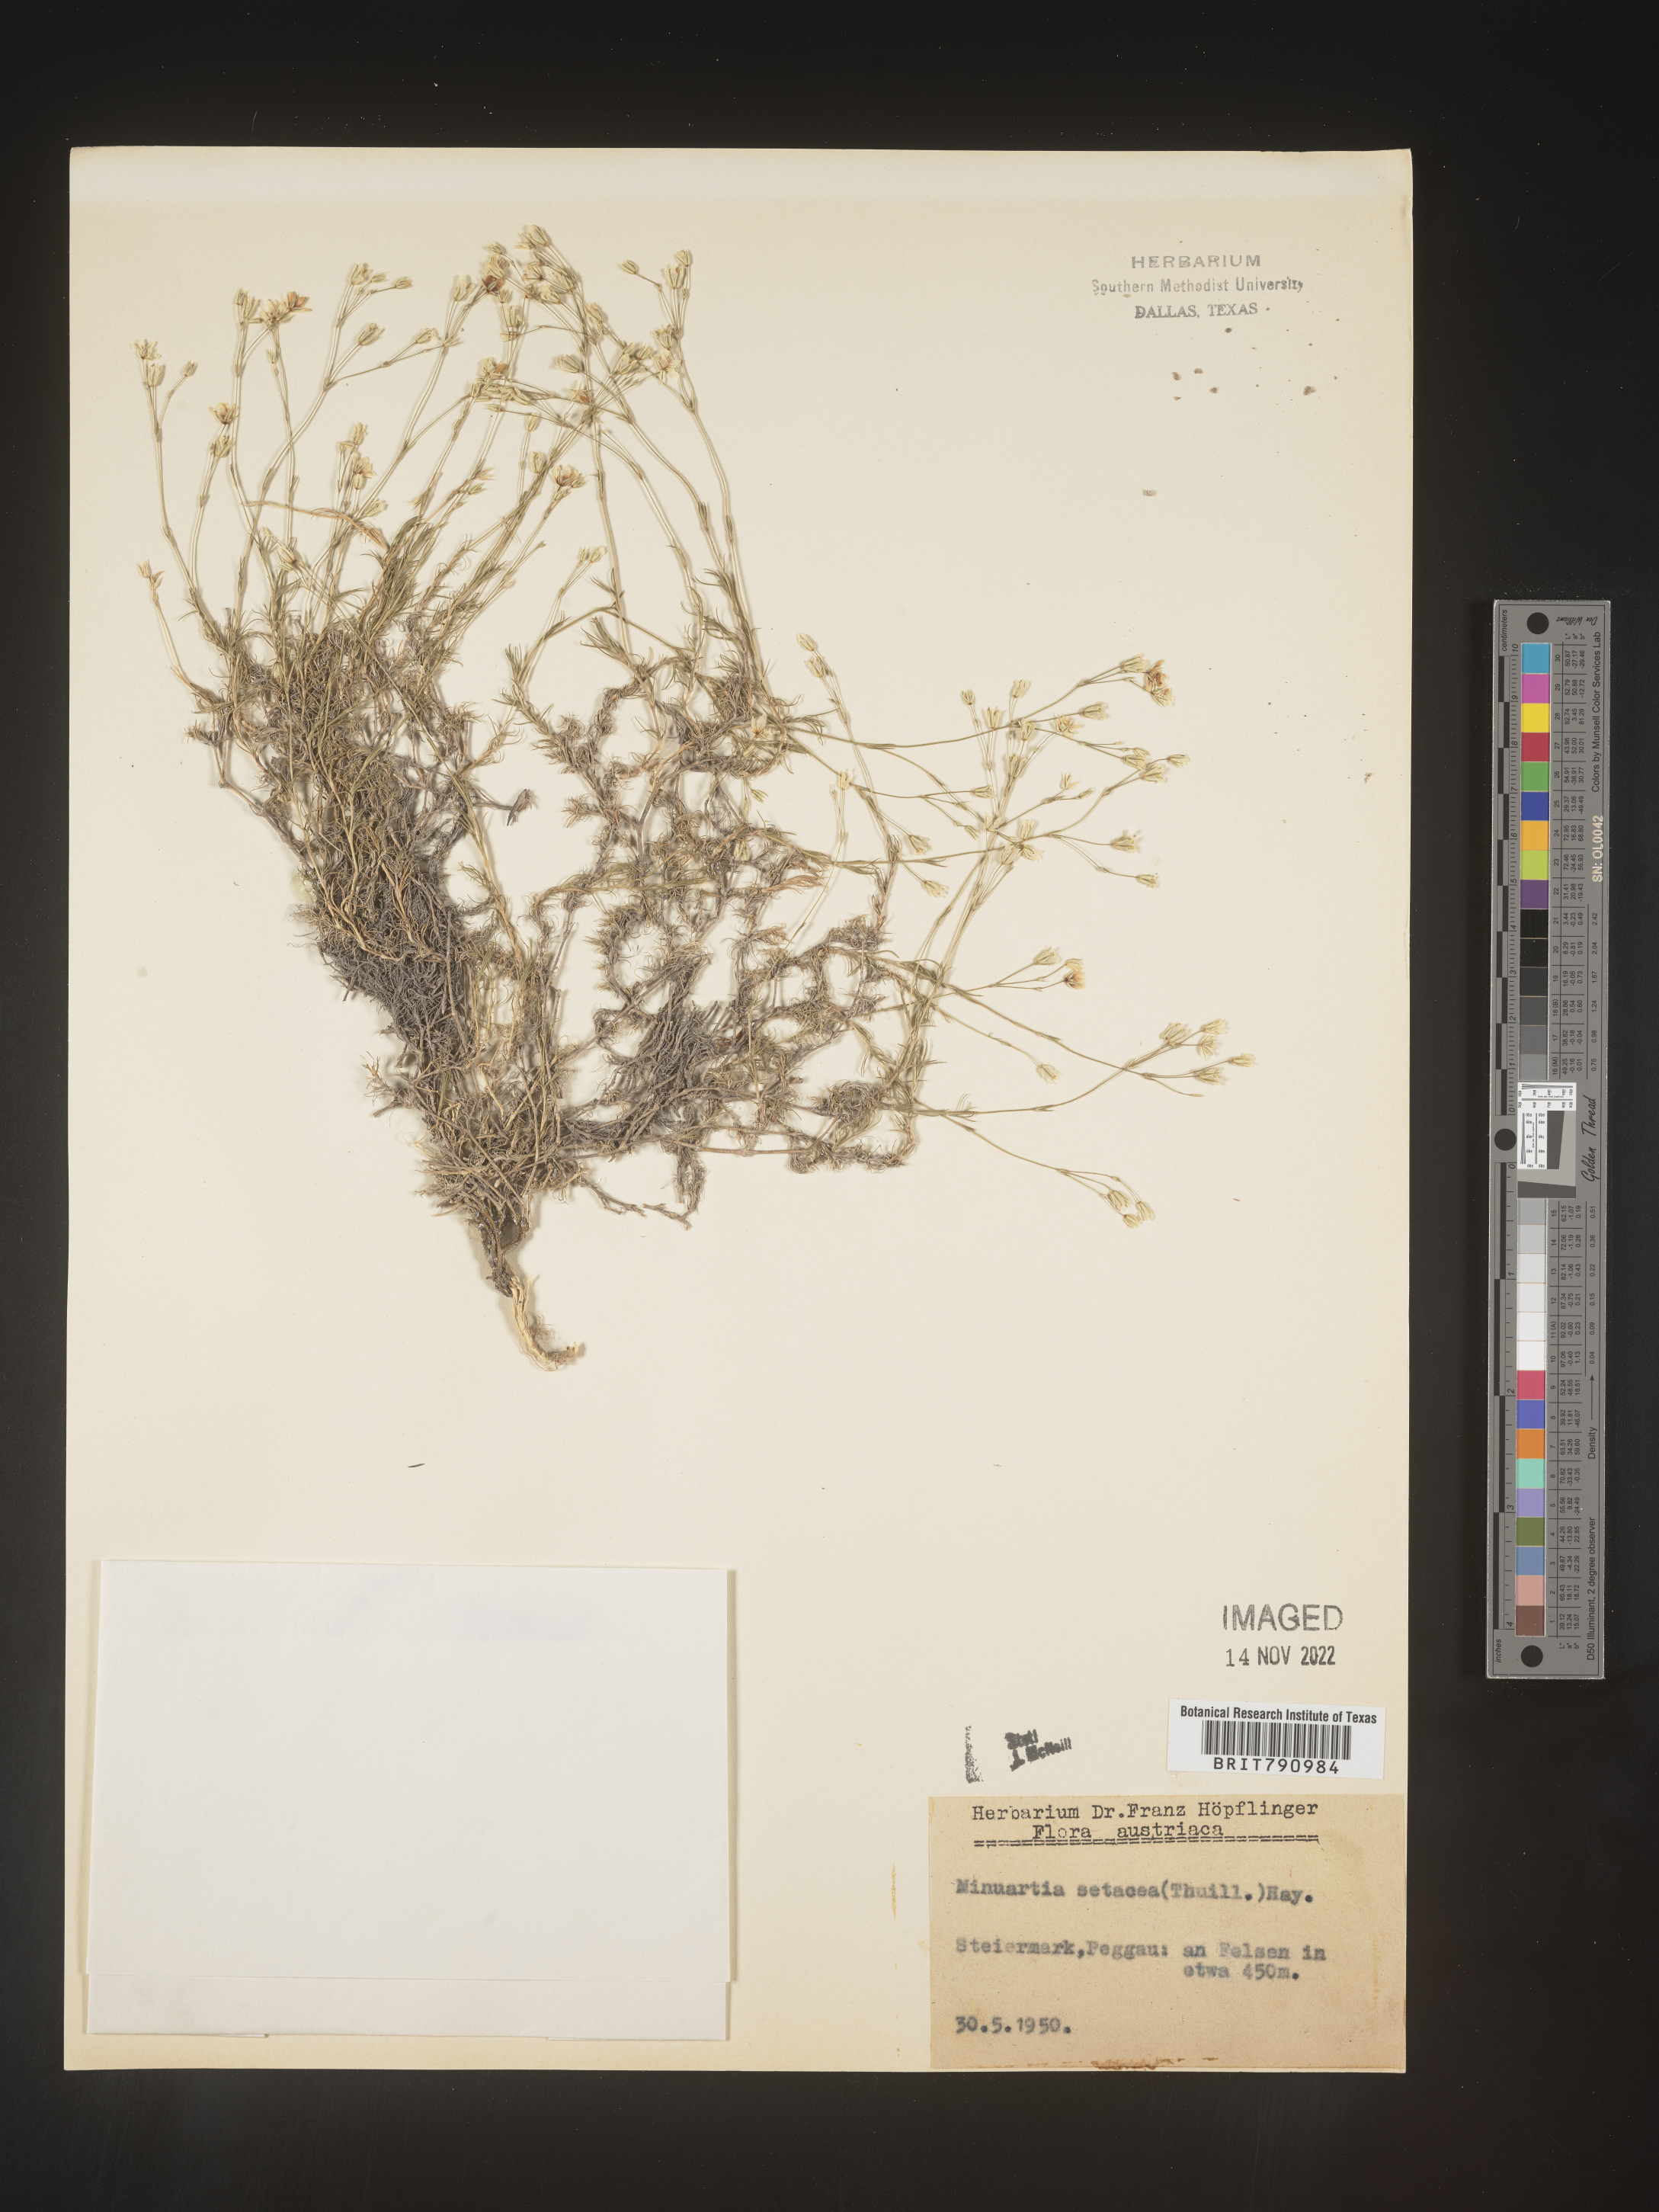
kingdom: Plantae
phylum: Tracheophyta
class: Magnoliopsida
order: Caryophyllales
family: Caryophyllaceae
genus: Minuartia
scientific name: Minuartia
